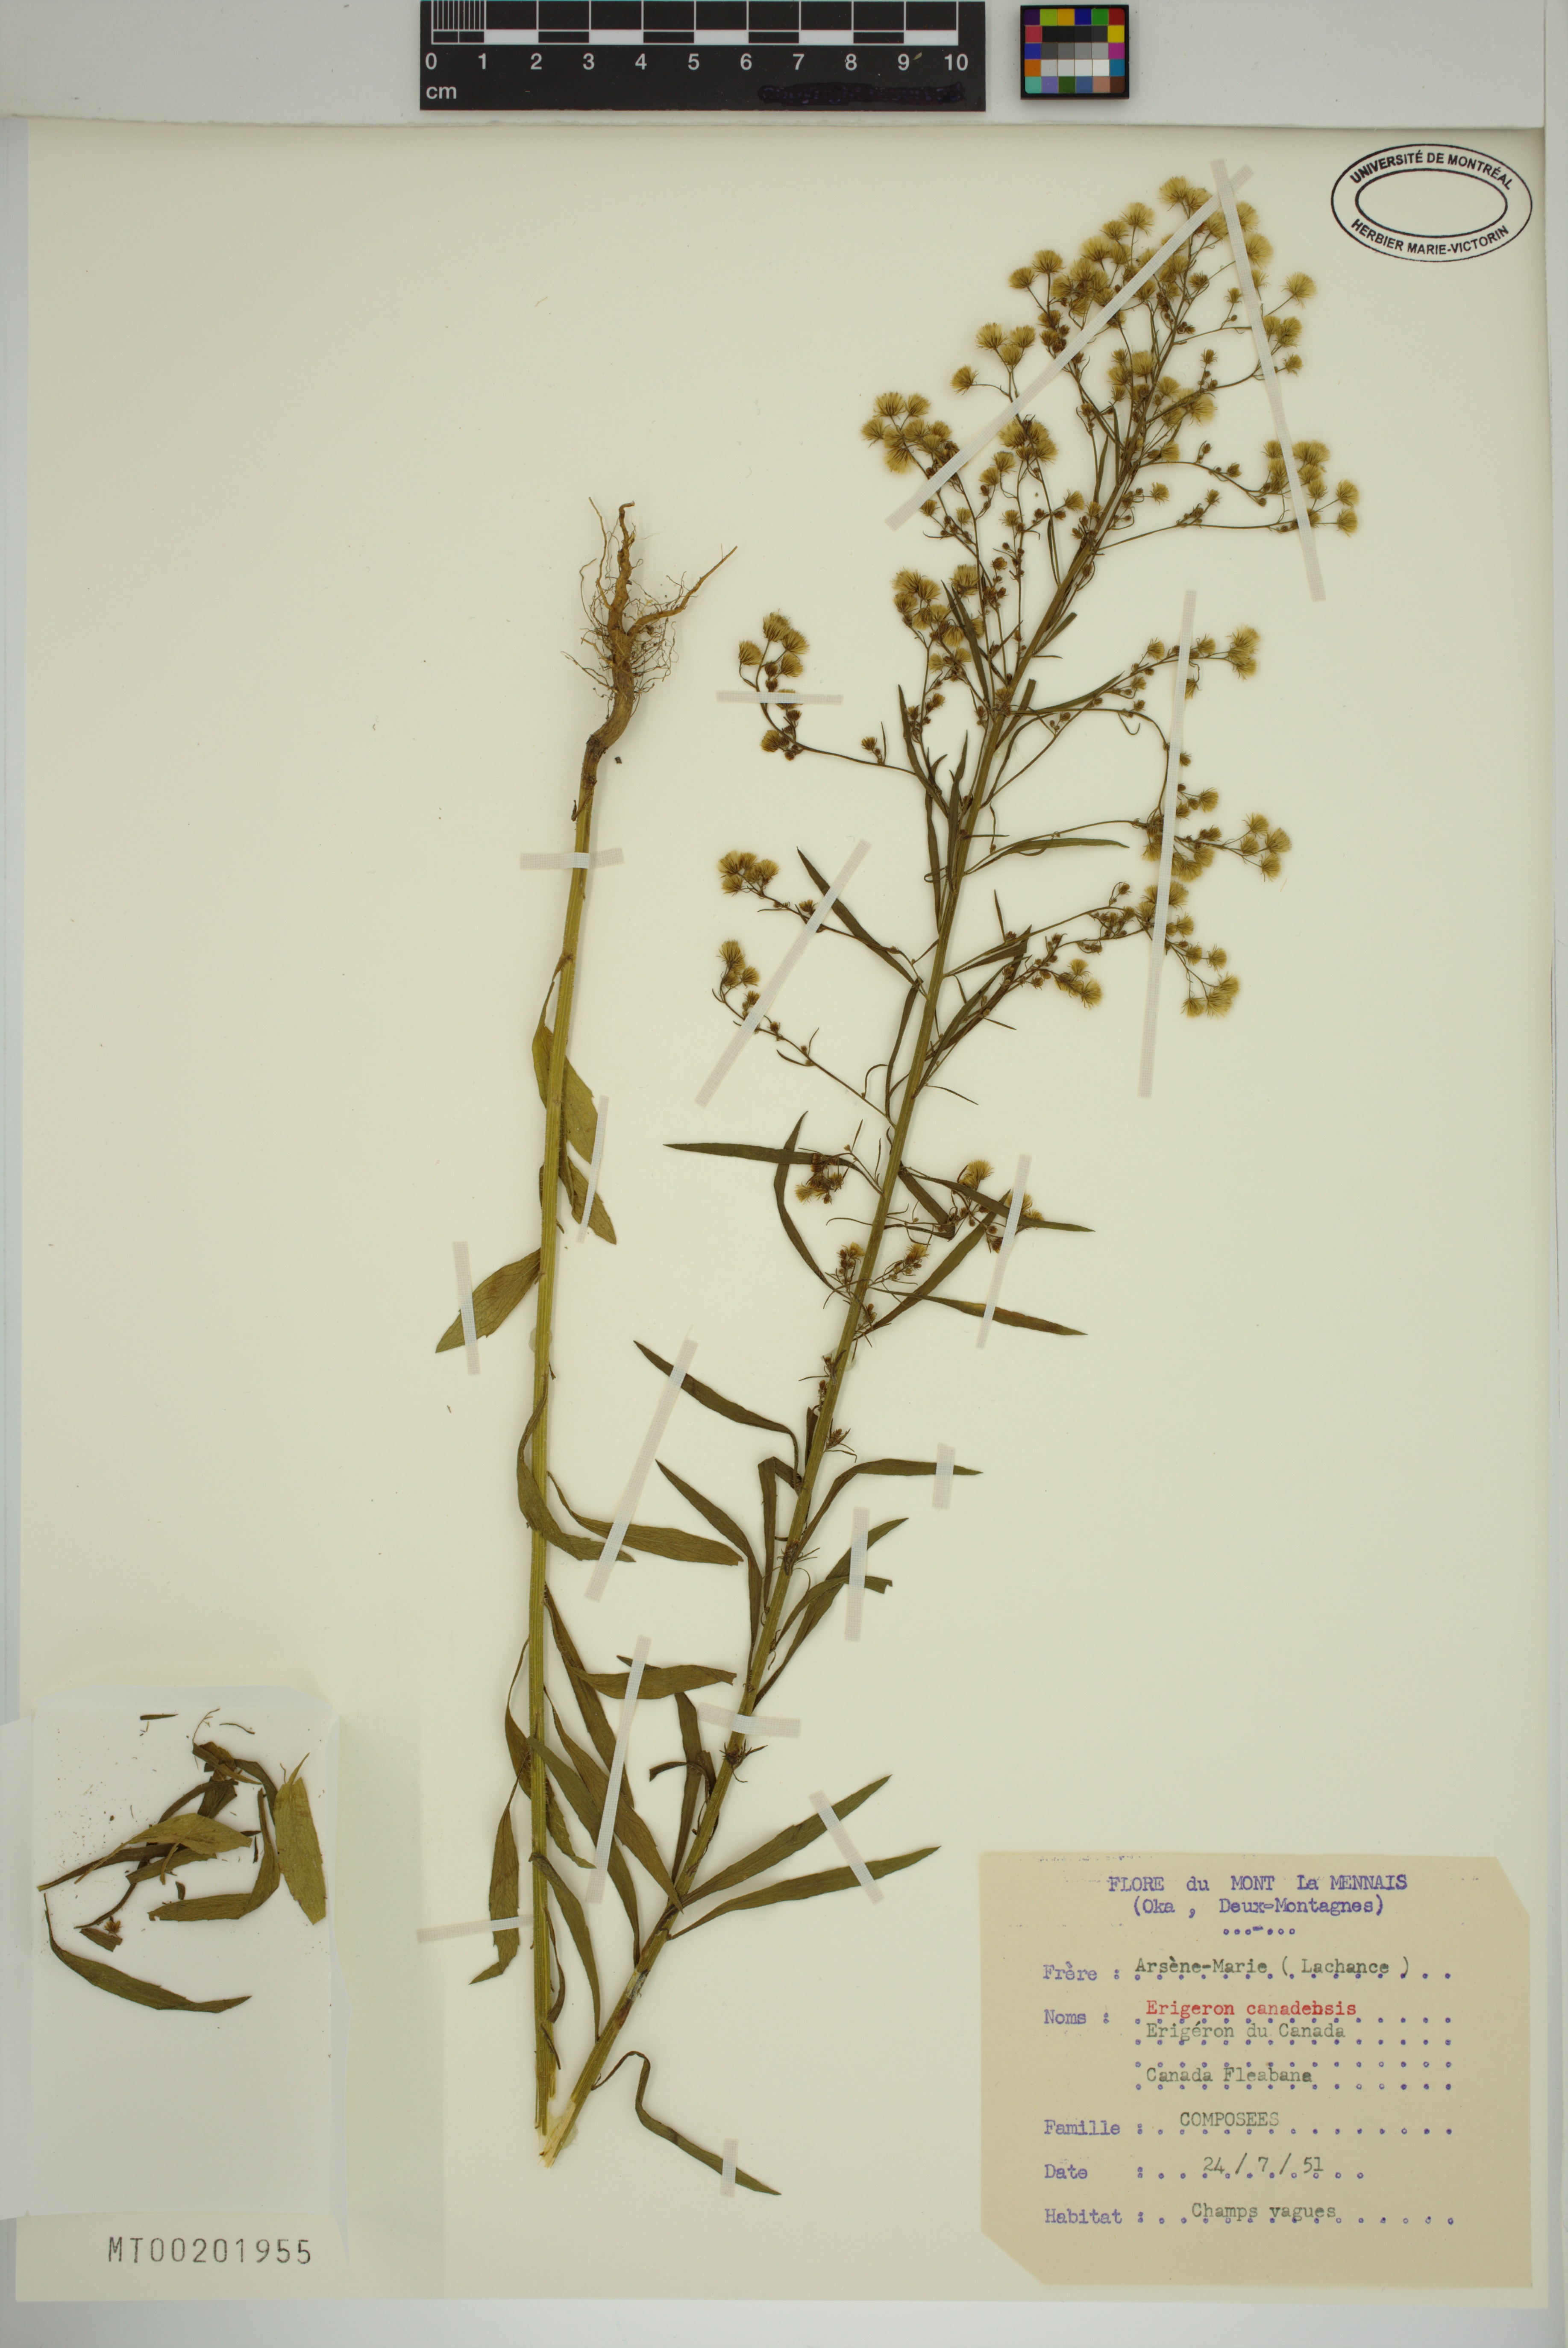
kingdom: Plantae
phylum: Tracheophyta
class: Magnoliopsida
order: Asterales
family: Asteraceae
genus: Erigeron
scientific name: Erigeron canadensis
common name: Canadian fleabane
